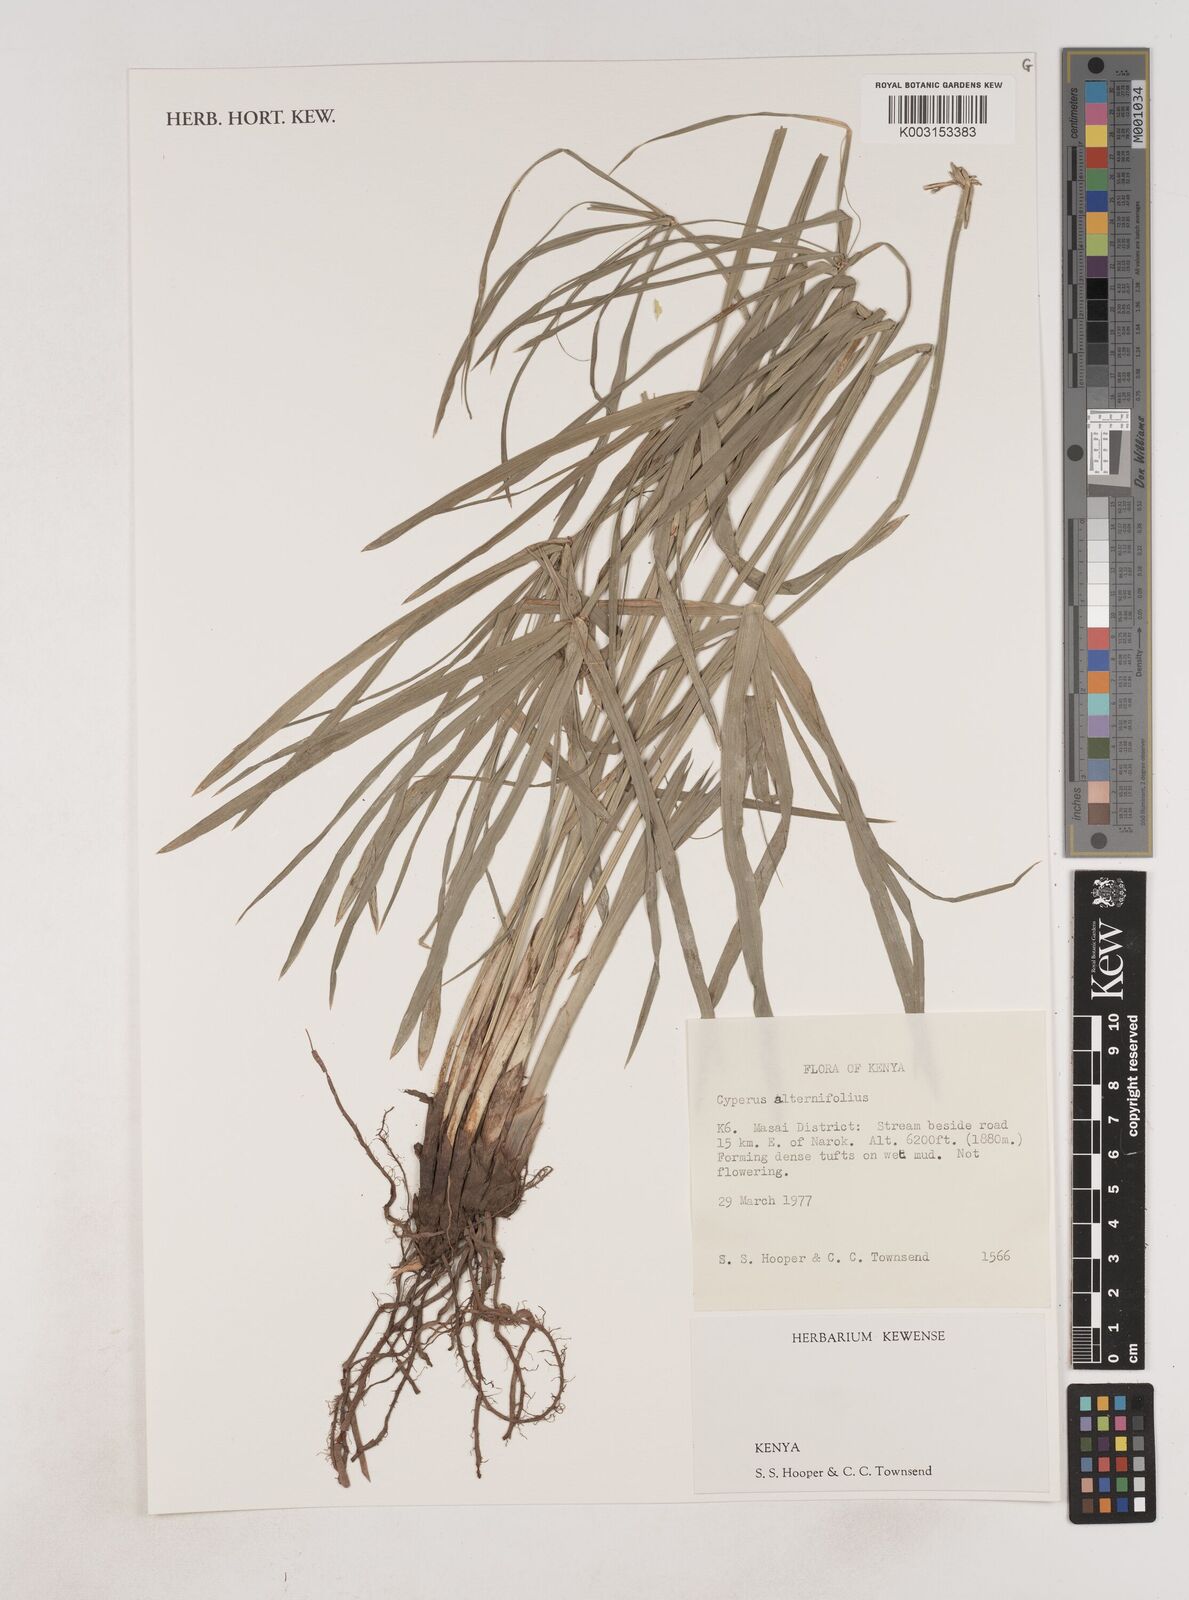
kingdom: Plantae
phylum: Tracheophyta
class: Liliopsida
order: Poales
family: Cyperaceae
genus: Cyperus
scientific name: Cyperus alternifolius
